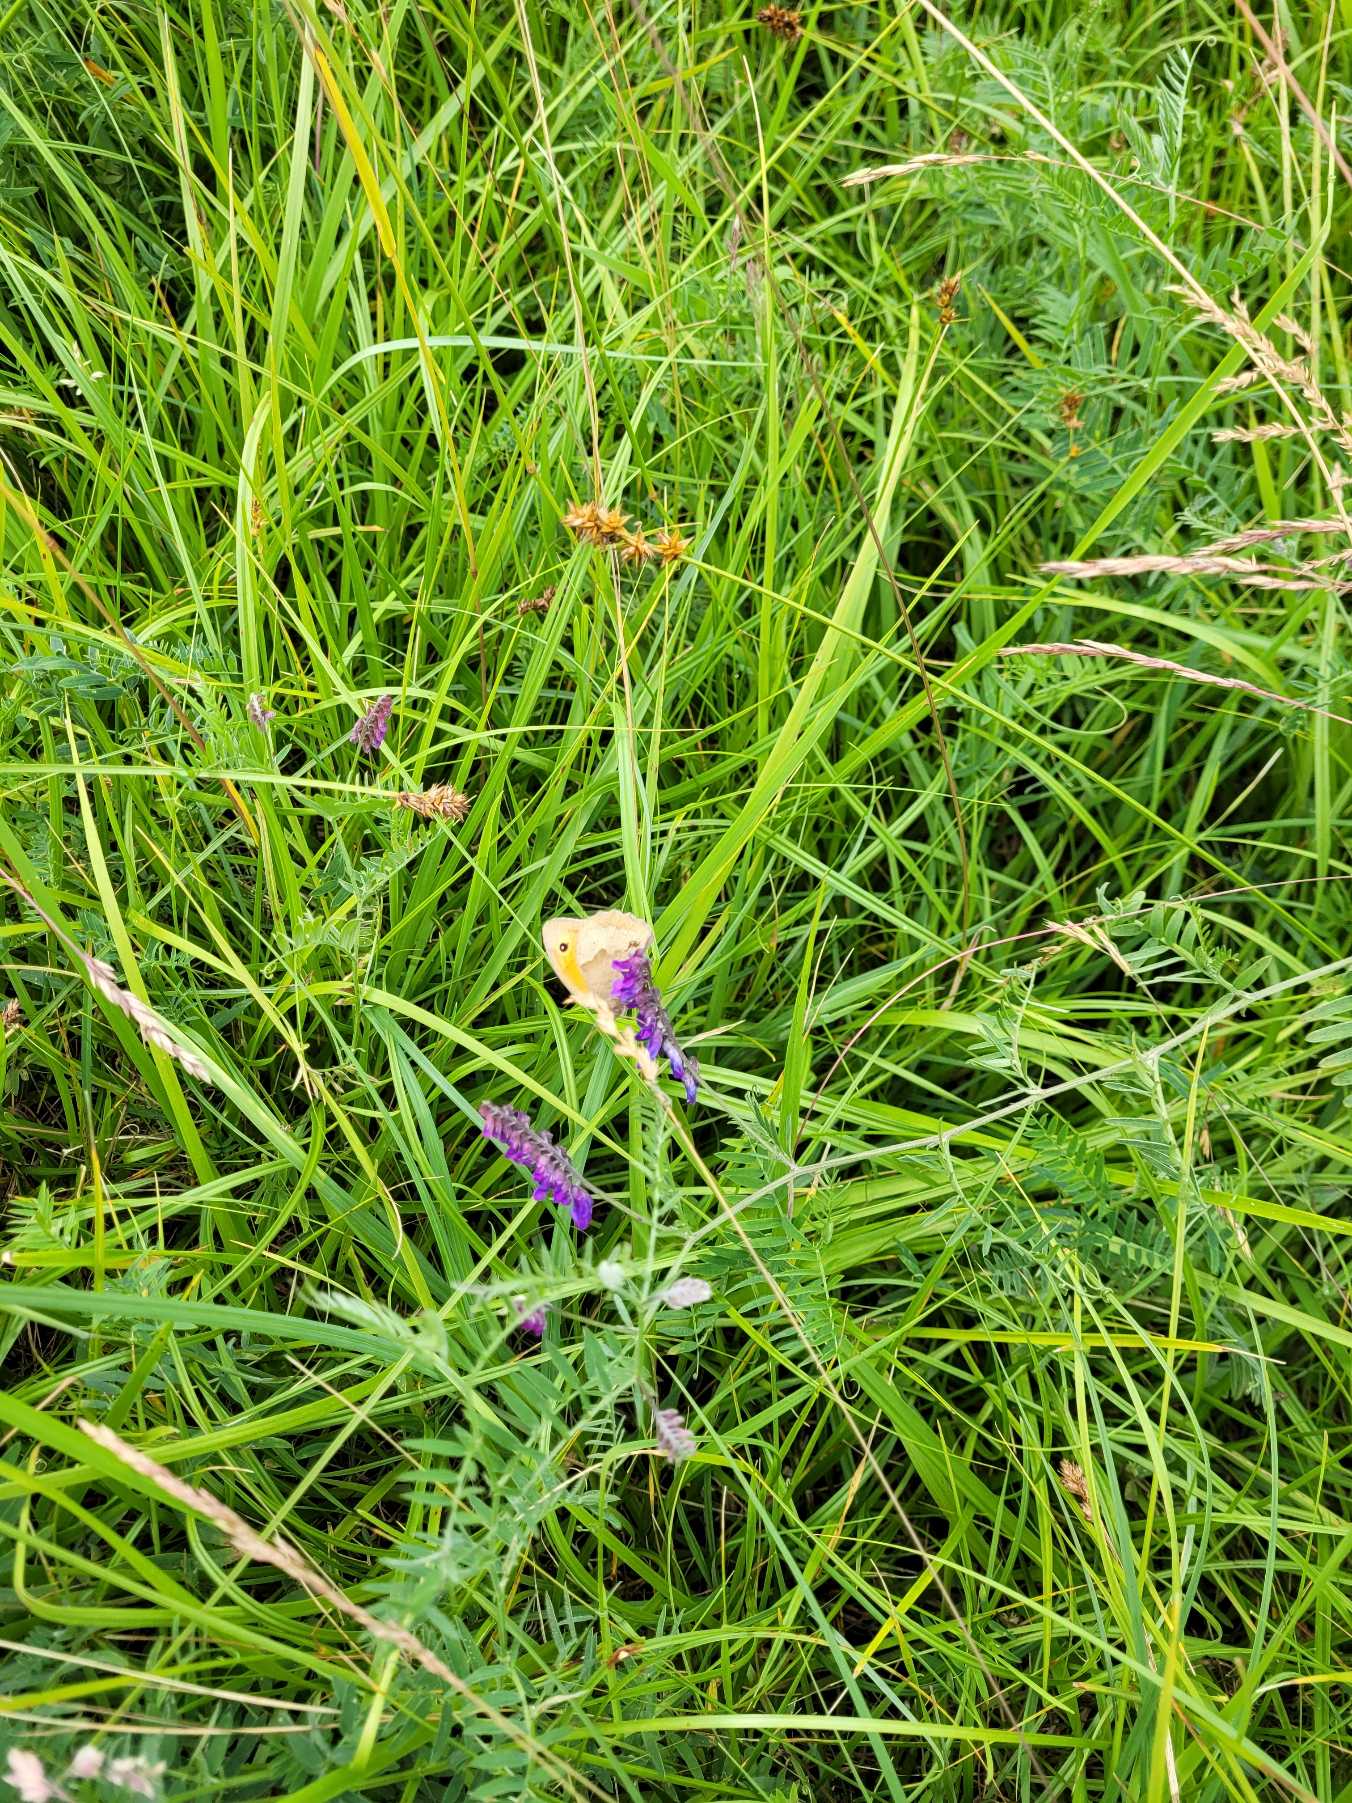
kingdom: Animalia
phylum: Arthropoda
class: Insecta
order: Lepidoptera
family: Nymphalidae
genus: Maniola
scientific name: Maniola jurtina
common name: Græsrandøje
